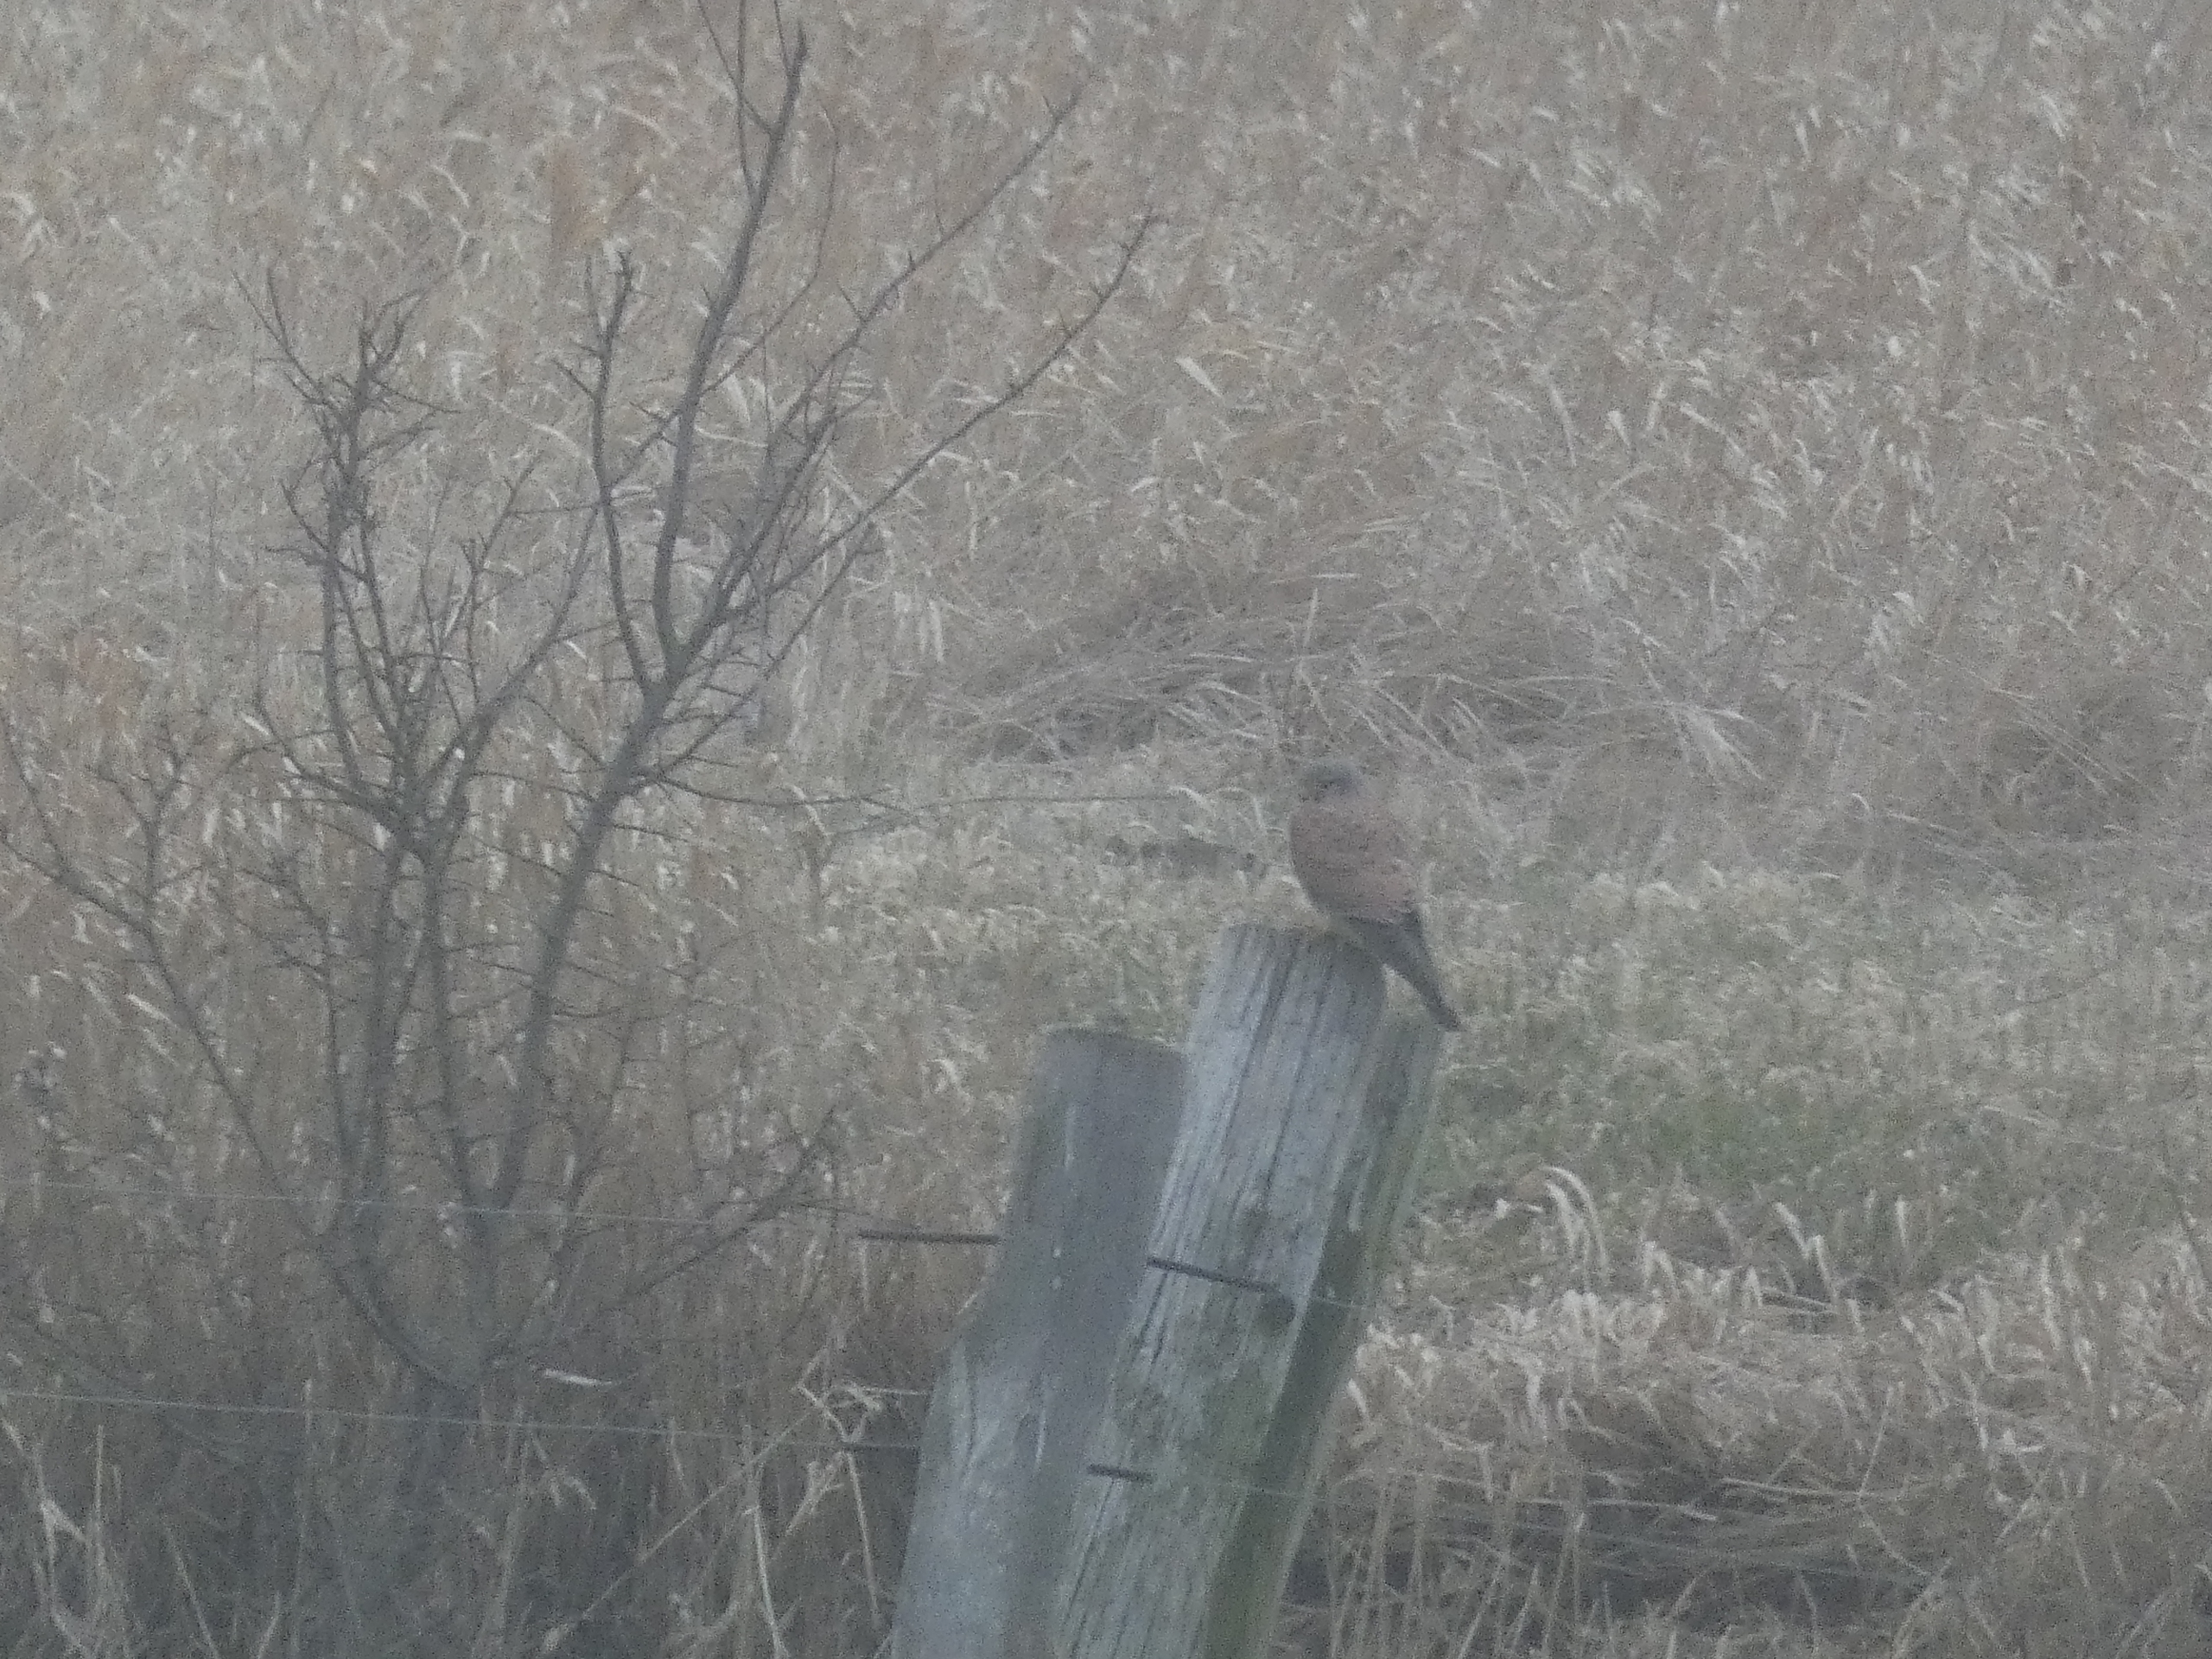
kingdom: Animalia
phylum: Chordata
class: Aves
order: Falconiformes
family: Falconidae
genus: Falco
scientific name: Falco tinnunculus
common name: Tårnfalk
